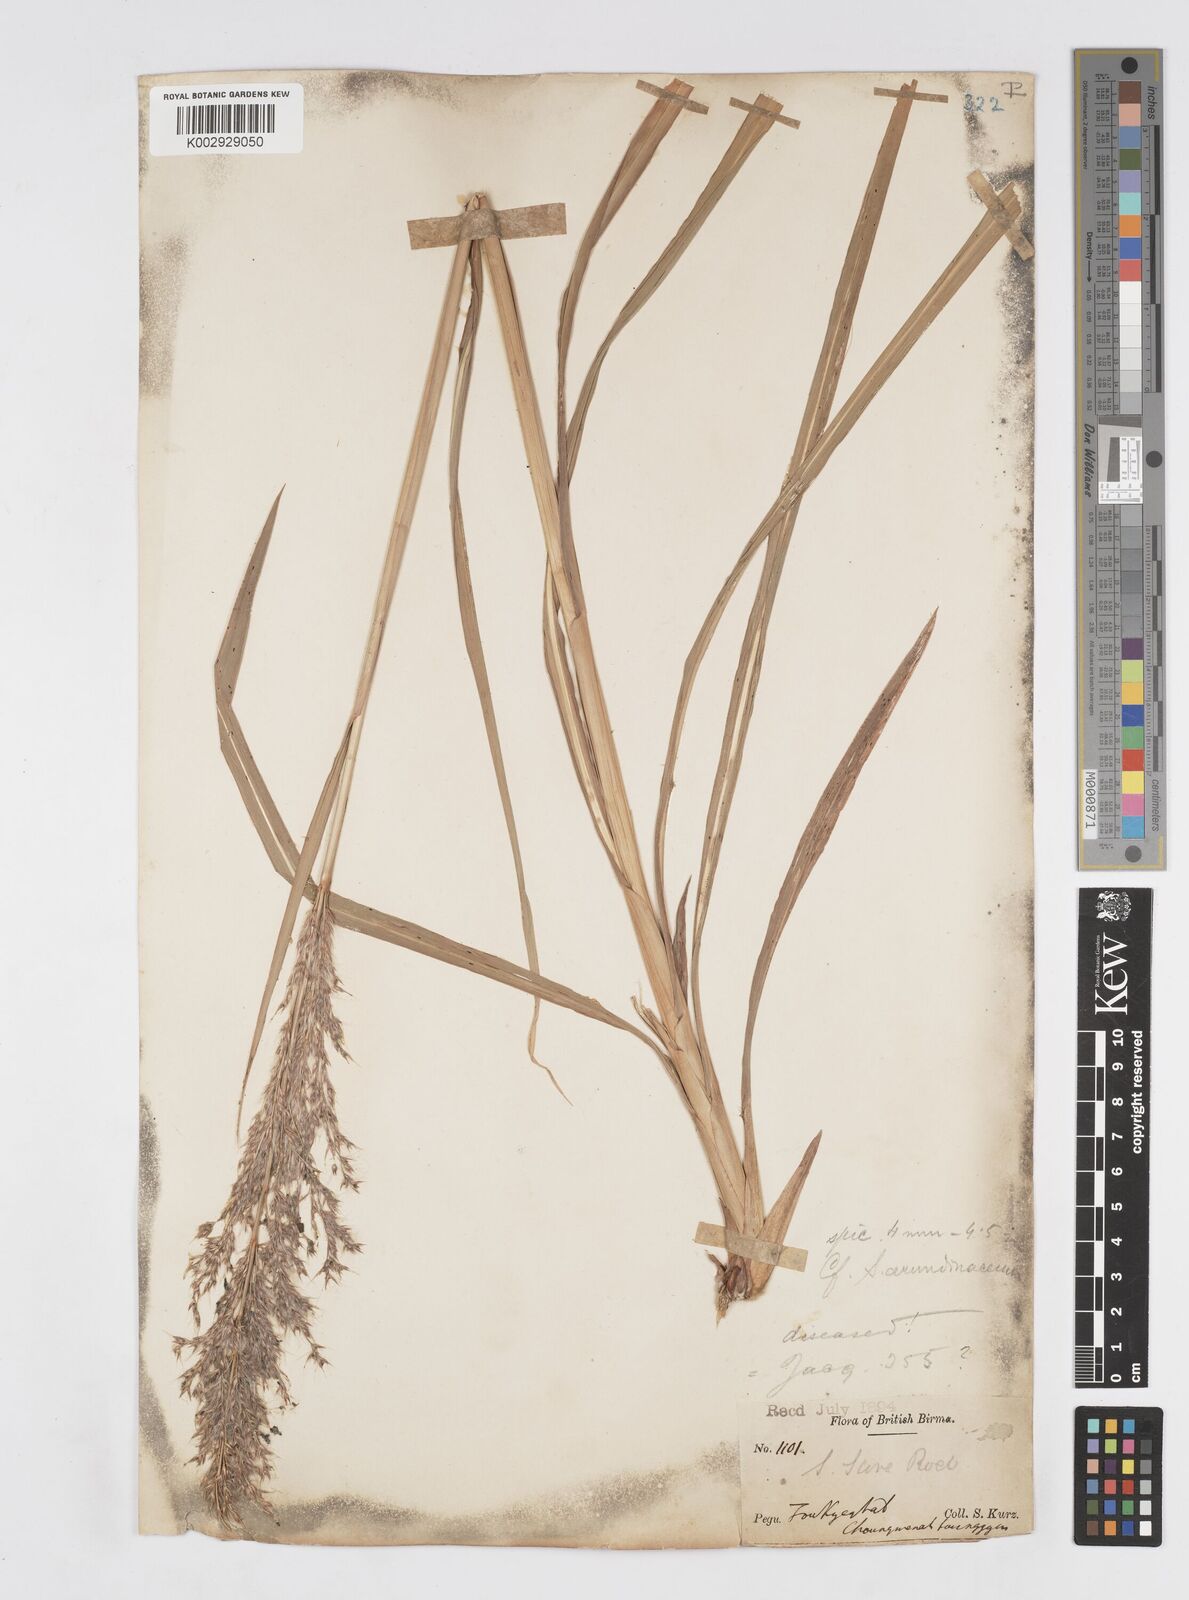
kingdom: Plantae
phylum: Tracheophyta
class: Liliopsida
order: Poales
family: Poaceae
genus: Tripidium
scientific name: Tripidium arundinaceum
